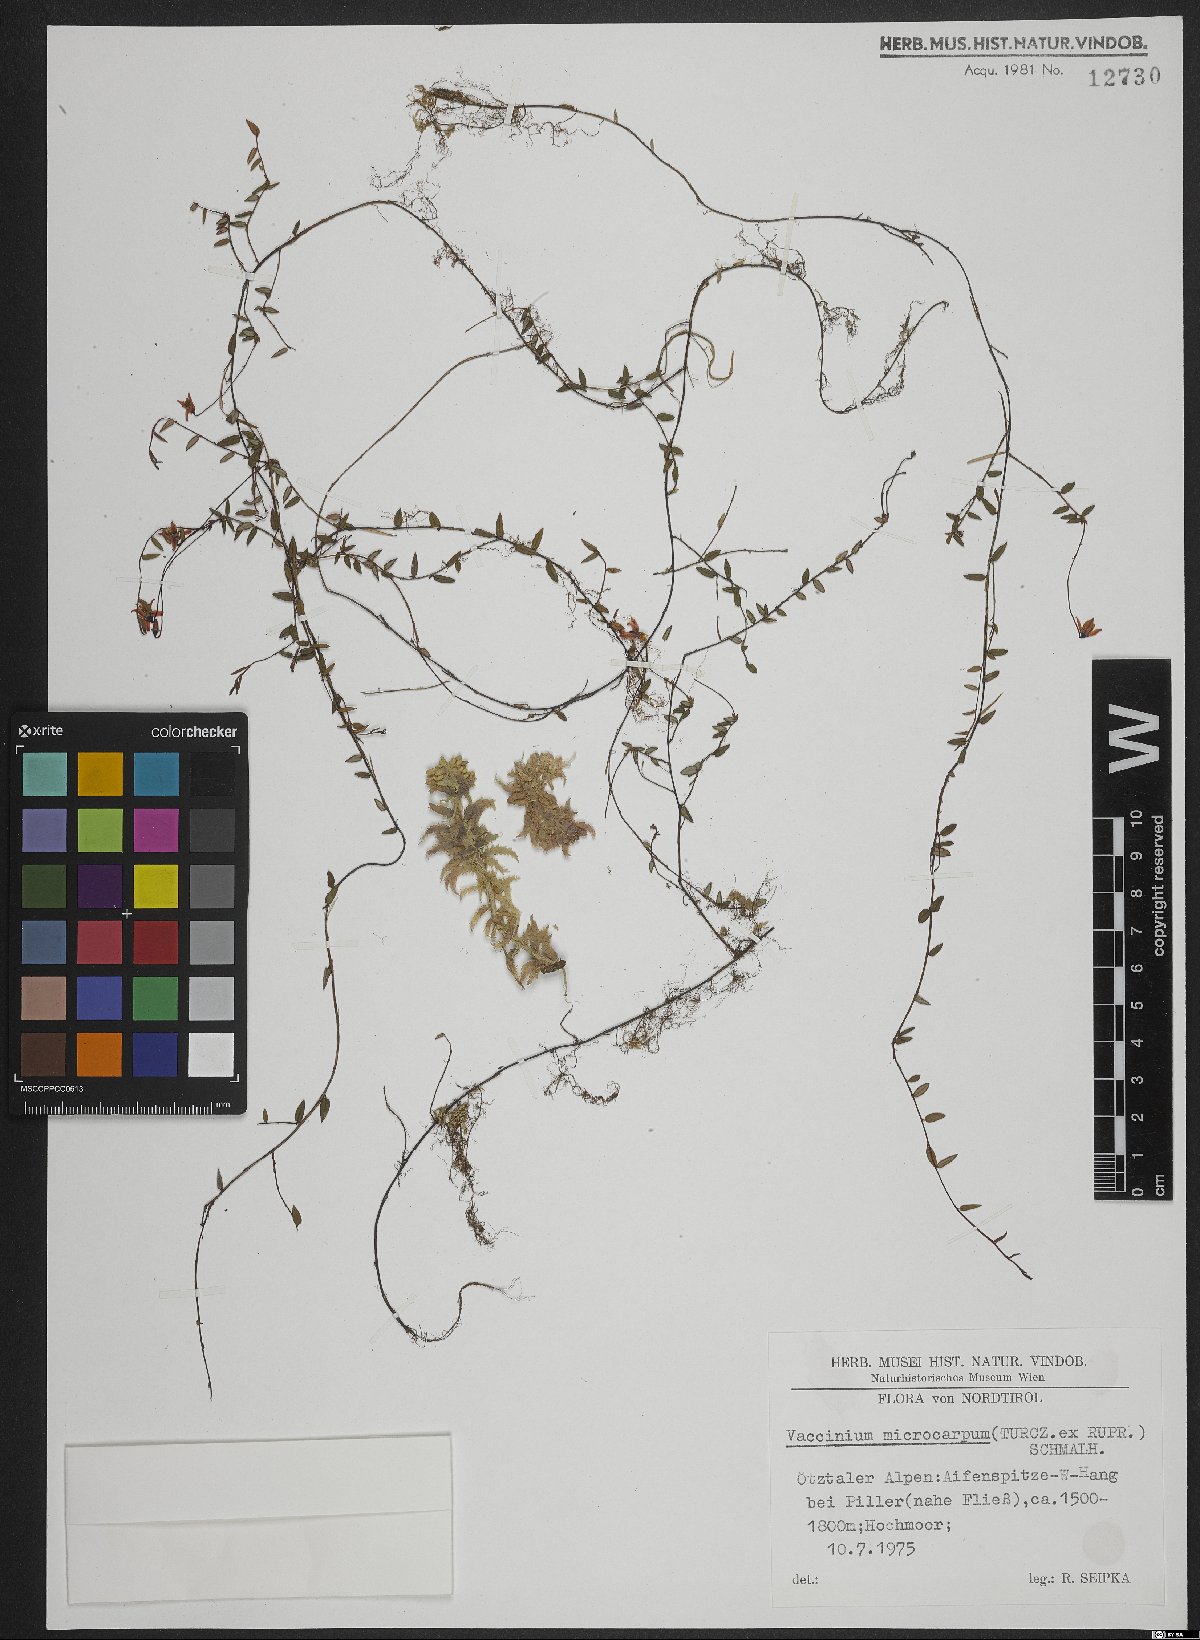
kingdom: Plantae
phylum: Tracheophyta
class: Magnoliopsida
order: Ericales
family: Ericaceae
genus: Vaccinium
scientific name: Vaccinium microcarpum
